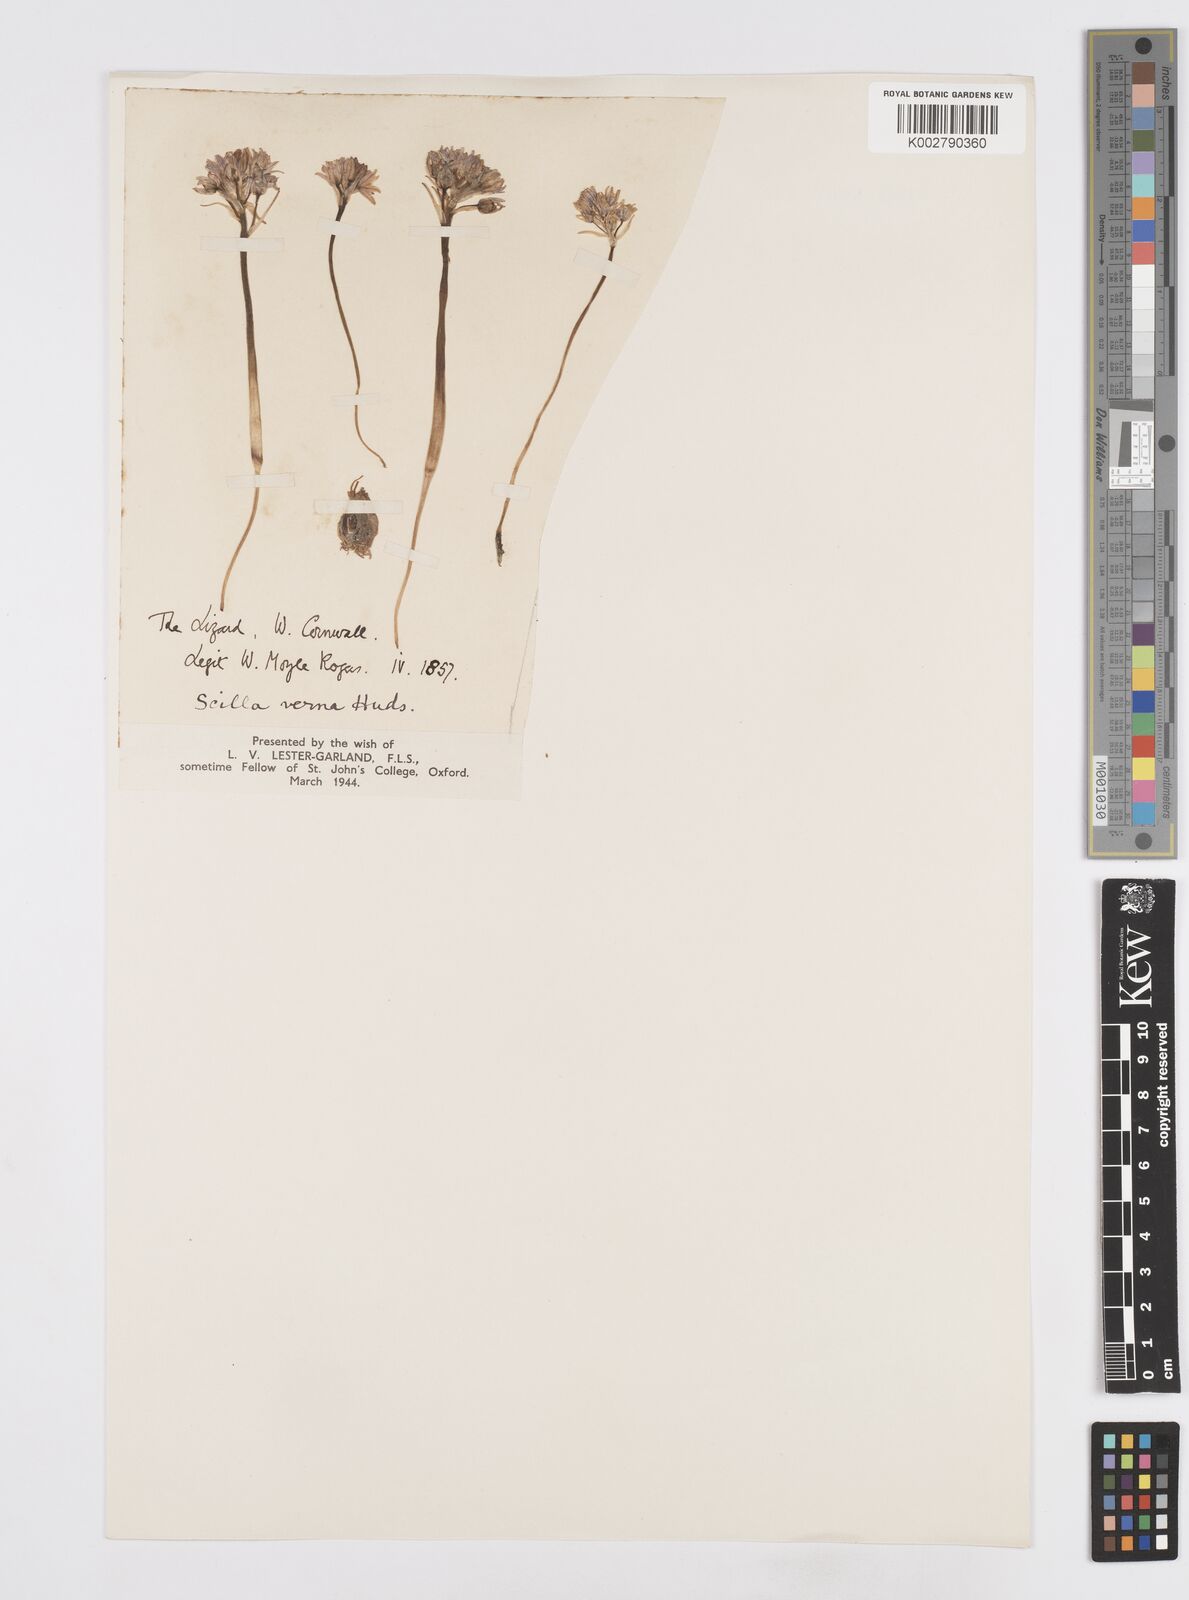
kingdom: Plantae
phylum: Tracheophyta
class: Liliopsida
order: Asparagales
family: Asparagaceae
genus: Scilla
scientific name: Scilla verna
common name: Spring squill
